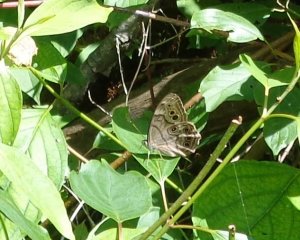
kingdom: Animalia
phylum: Arthropoda
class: Insecta
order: Lepidoptera
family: Nymphalidae
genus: Lethe
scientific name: Lethe anthedon
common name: Northern Pearly-Eye
